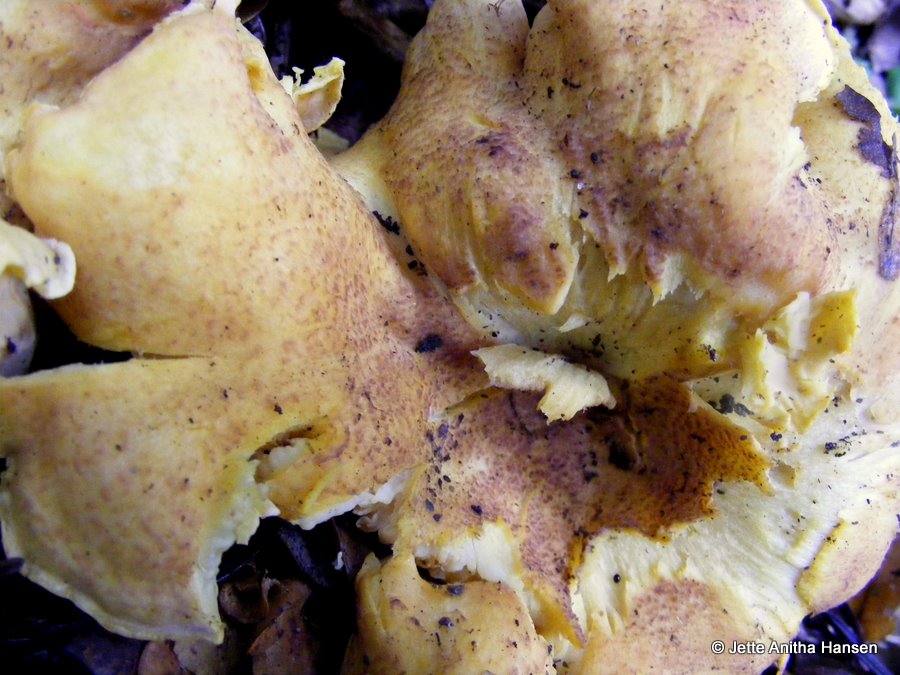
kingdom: Fungi
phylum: Basidiomycota
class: Agaricomycetes
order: Cantharellales
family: Hydnaceae
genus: Cantharellus
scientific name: Cantharellus amethysteus
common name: ametyst-kantarel
